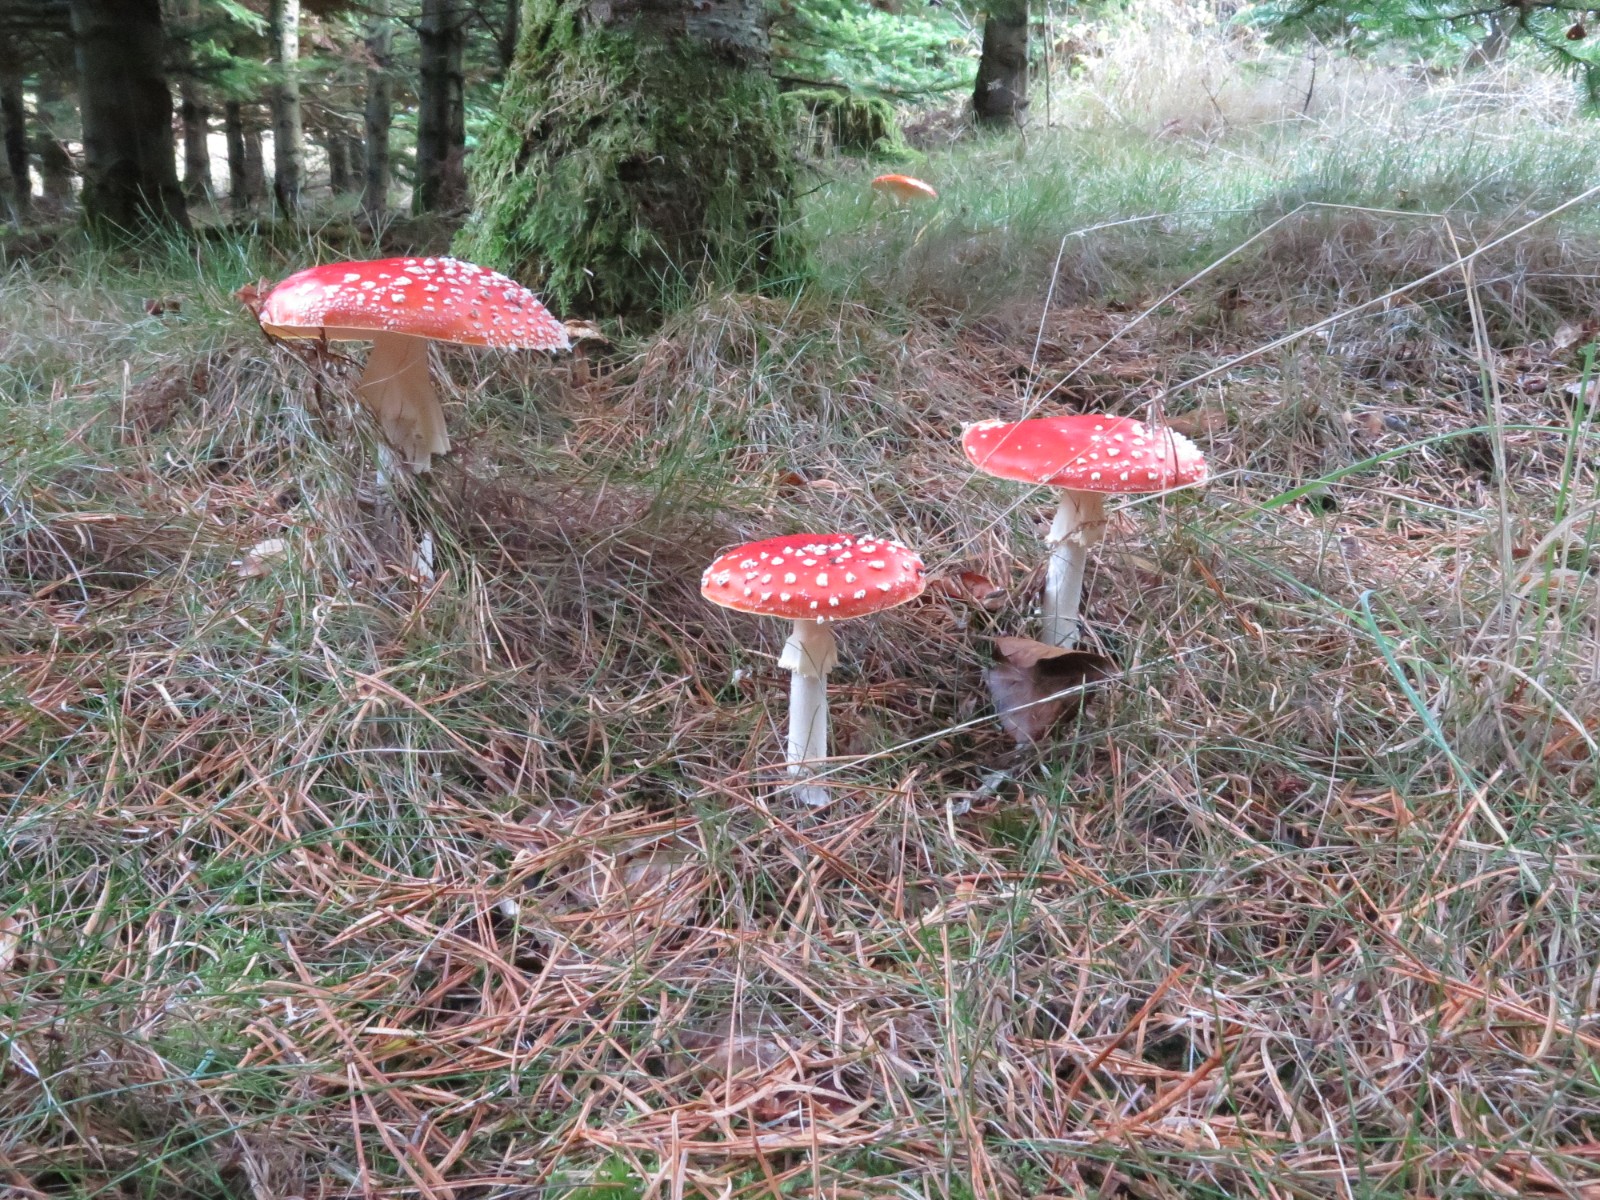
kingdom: Fungi
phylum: Basidiomycota
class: Agaricomycetes
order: Agaricales
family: Amanitaceae
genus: Amanita
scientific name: Amanita muscaria
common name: rød fluesvamp
